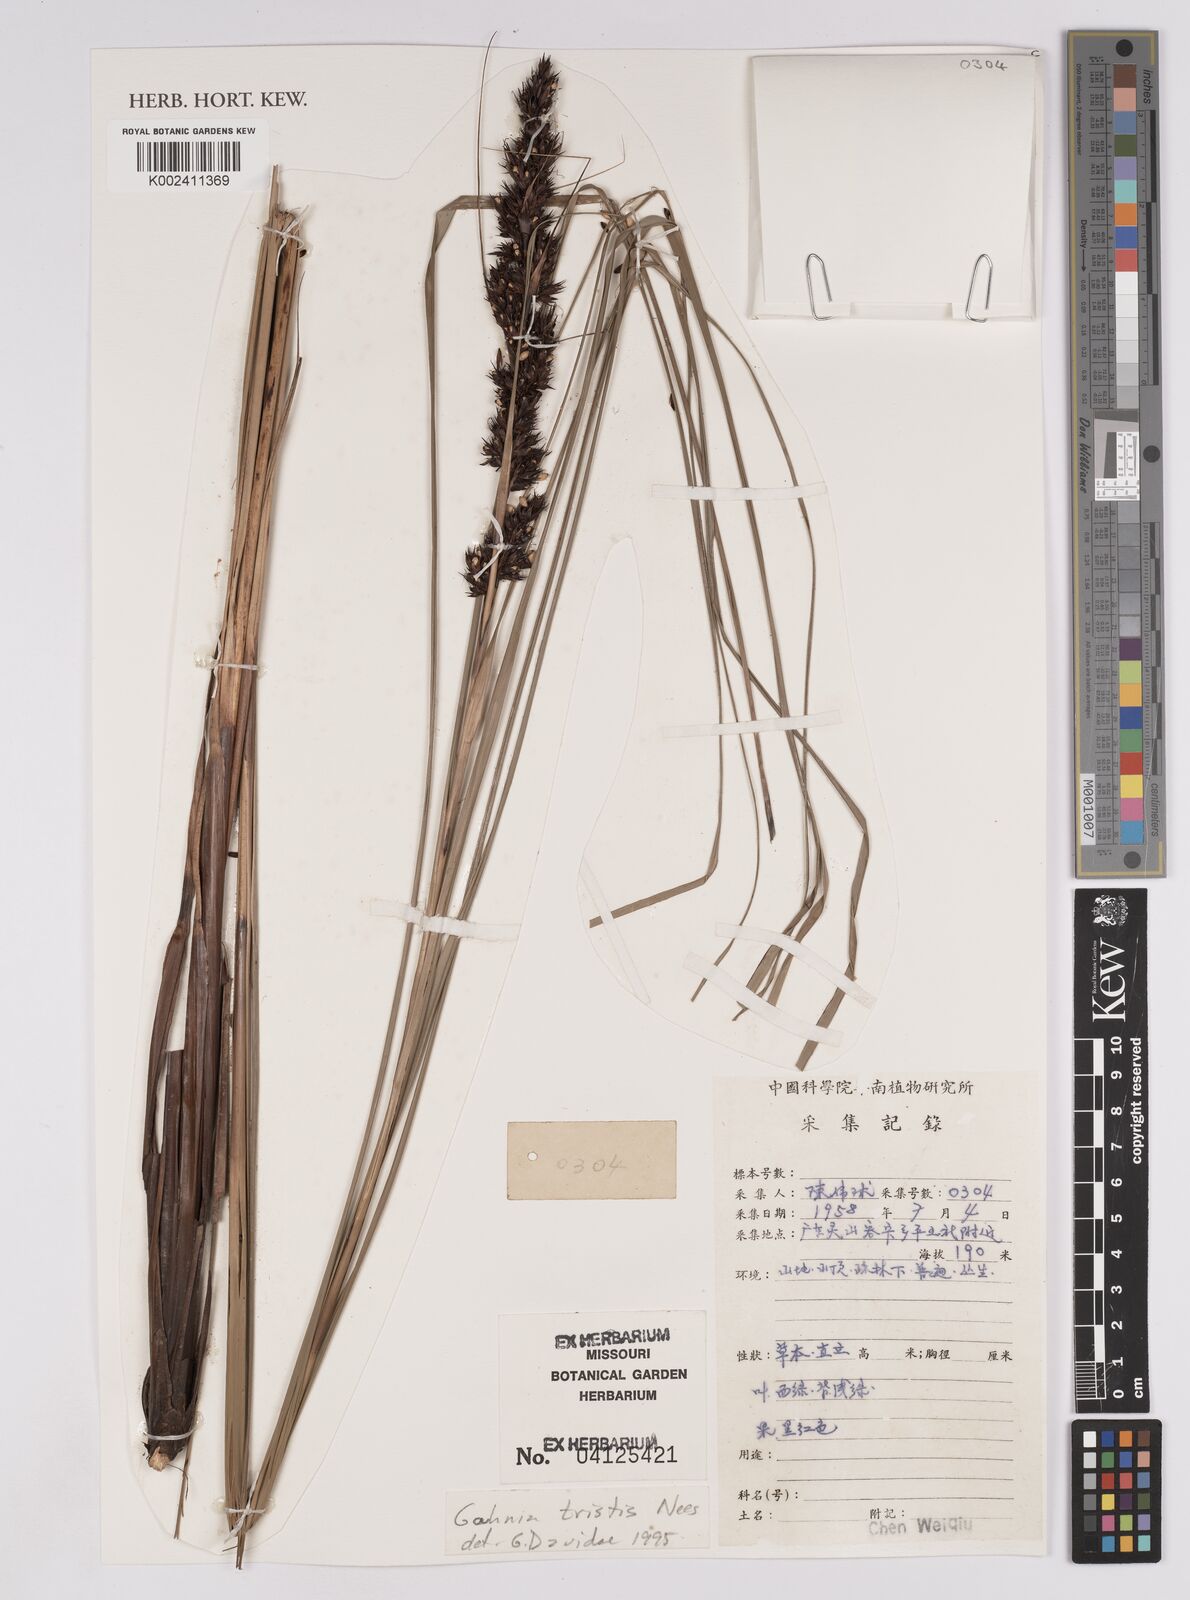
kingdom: Plantae
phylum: Tracheophyta
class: Liliopsida
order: Poales
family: Cyperaceae
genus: Gahnia
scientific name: Gahnia tristis
